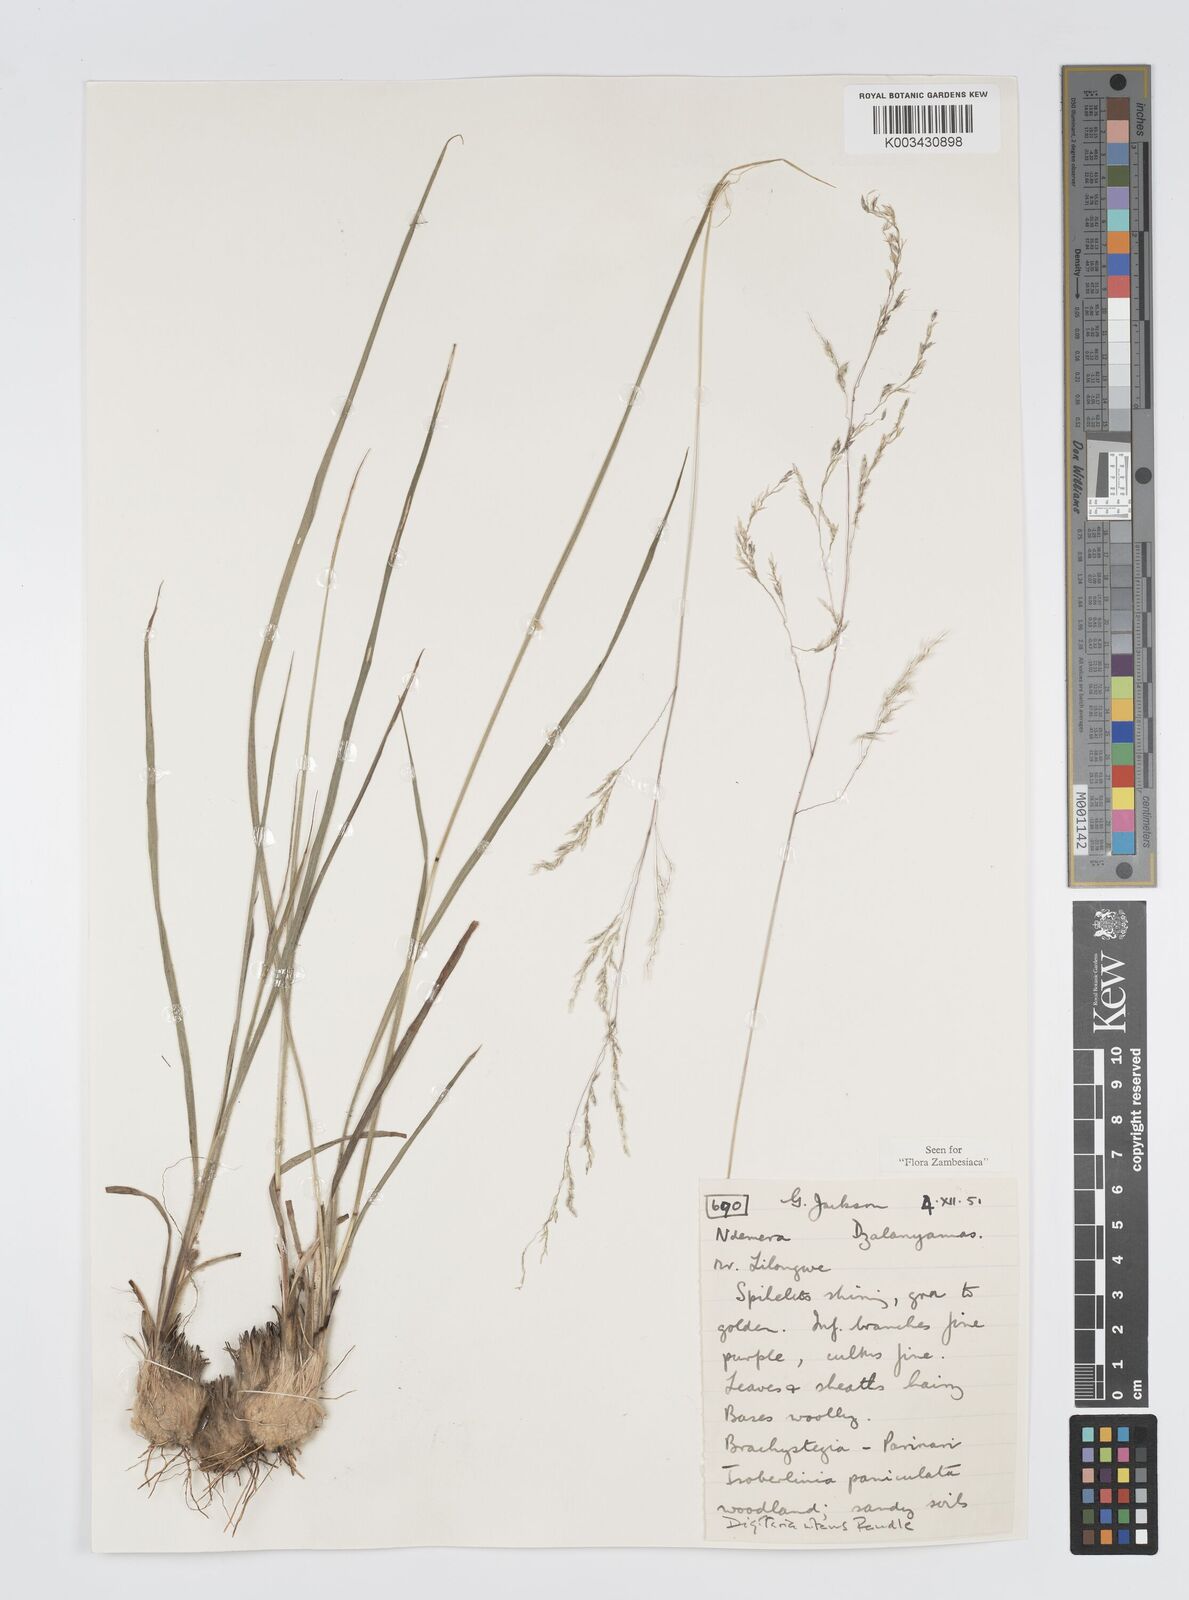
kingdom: Plantae
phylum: Tracheophyta
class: Liliopsida
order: Poales
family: Poaceae
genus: Digitaria
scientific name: Digitaria flaccida
